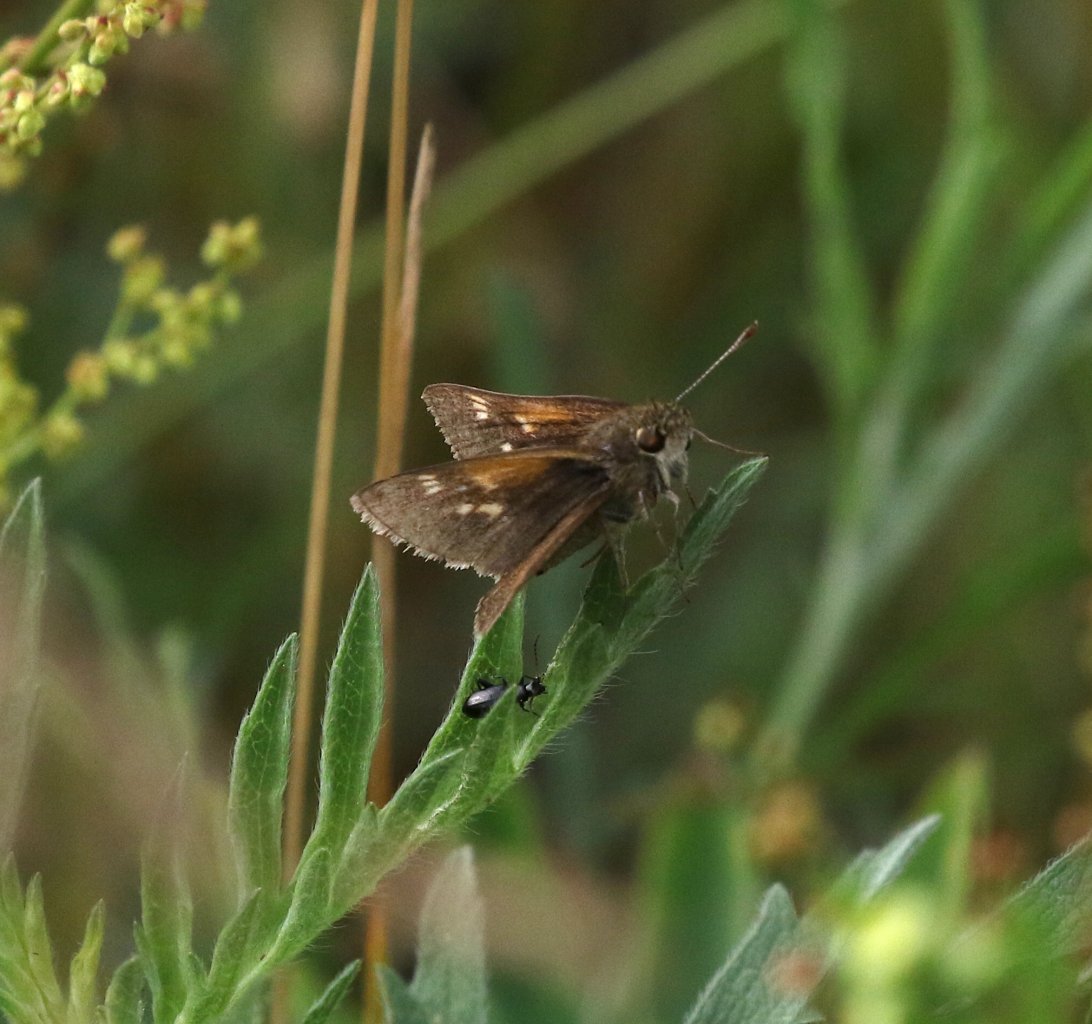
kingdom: Animalia
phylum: Arthropoda
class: Insecta
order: Lepidoptera
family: Hesperiidae
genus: Hesperia
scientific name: Hesperia metea
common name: Cobweb Skipper
